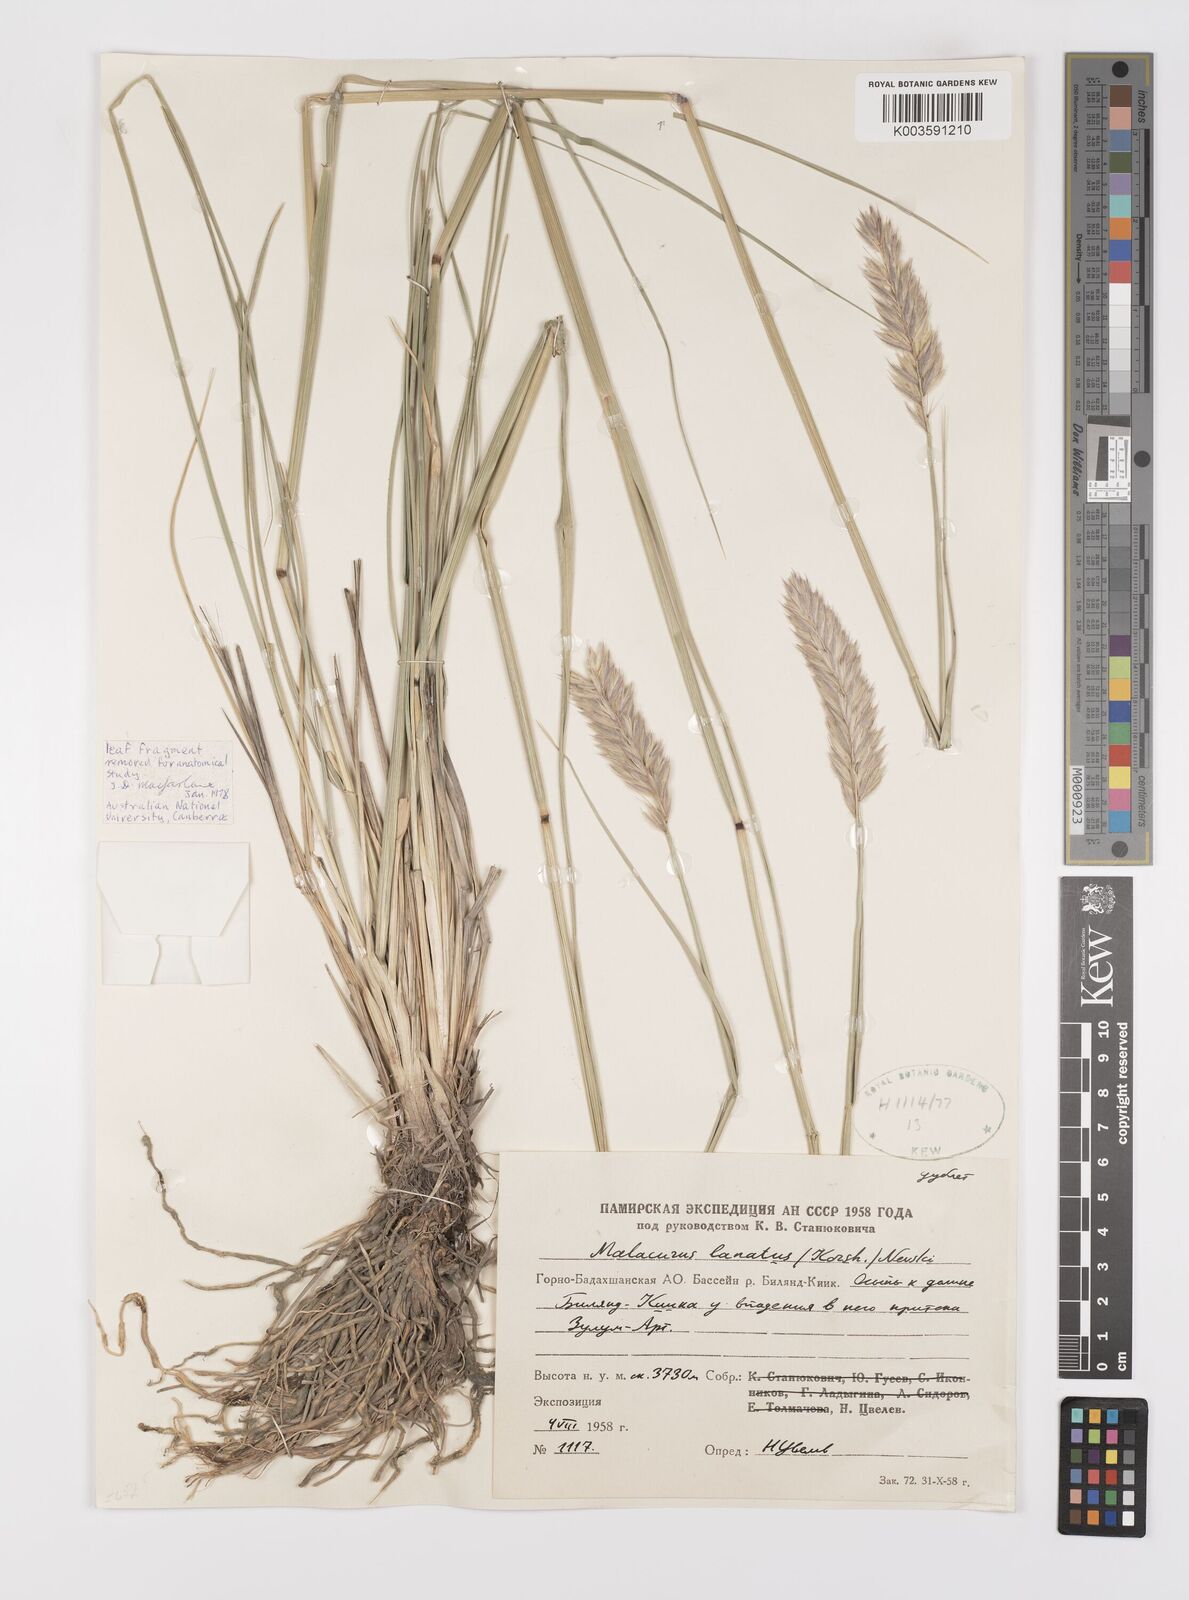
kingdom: Plantae
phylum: Tracheophyta
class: Liliopsida
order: Poales
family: Poaceae
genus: Leymus
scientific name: Leymus lanatus
